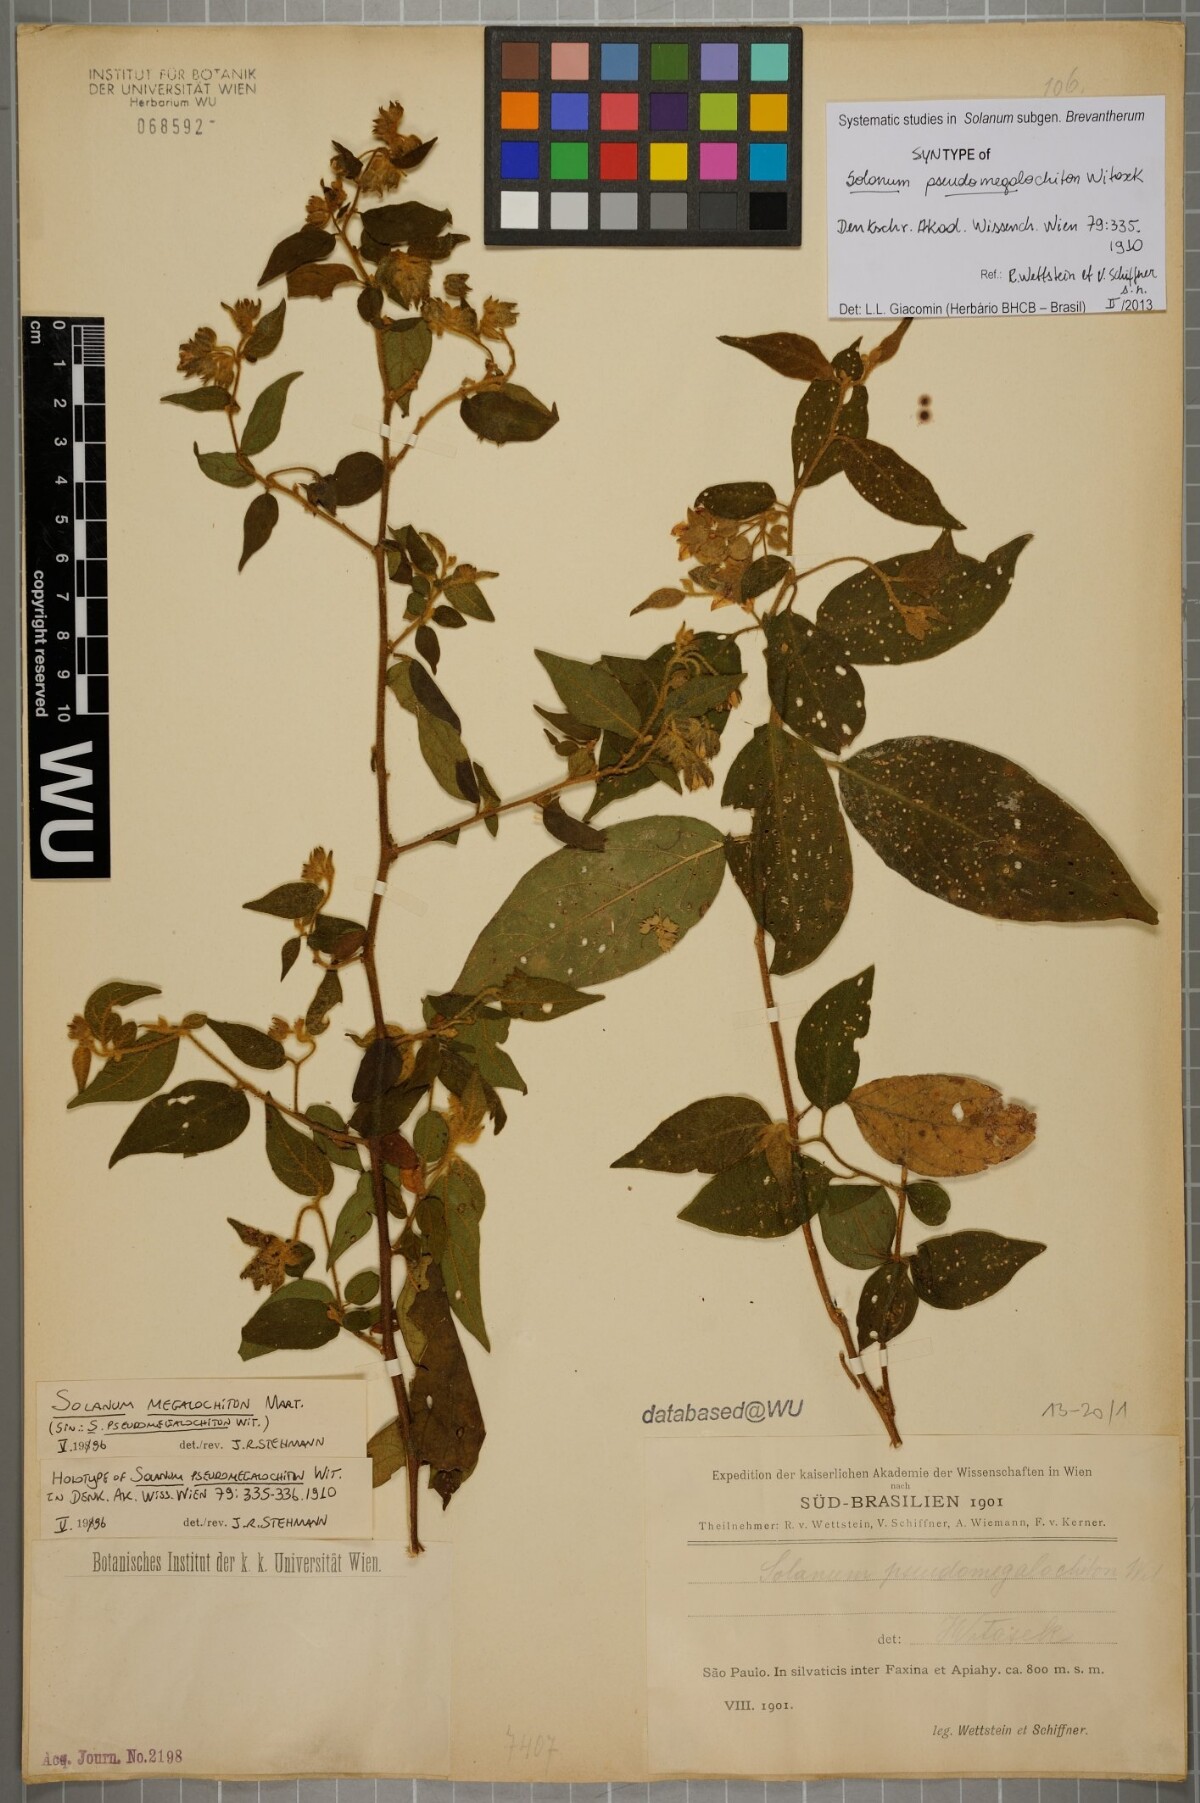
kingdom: Plantae
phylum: Tracheophyta
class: Magnoliopsida
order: Solanales
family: Solanaceae
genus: Solanum
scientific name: Solanum megalochiton
